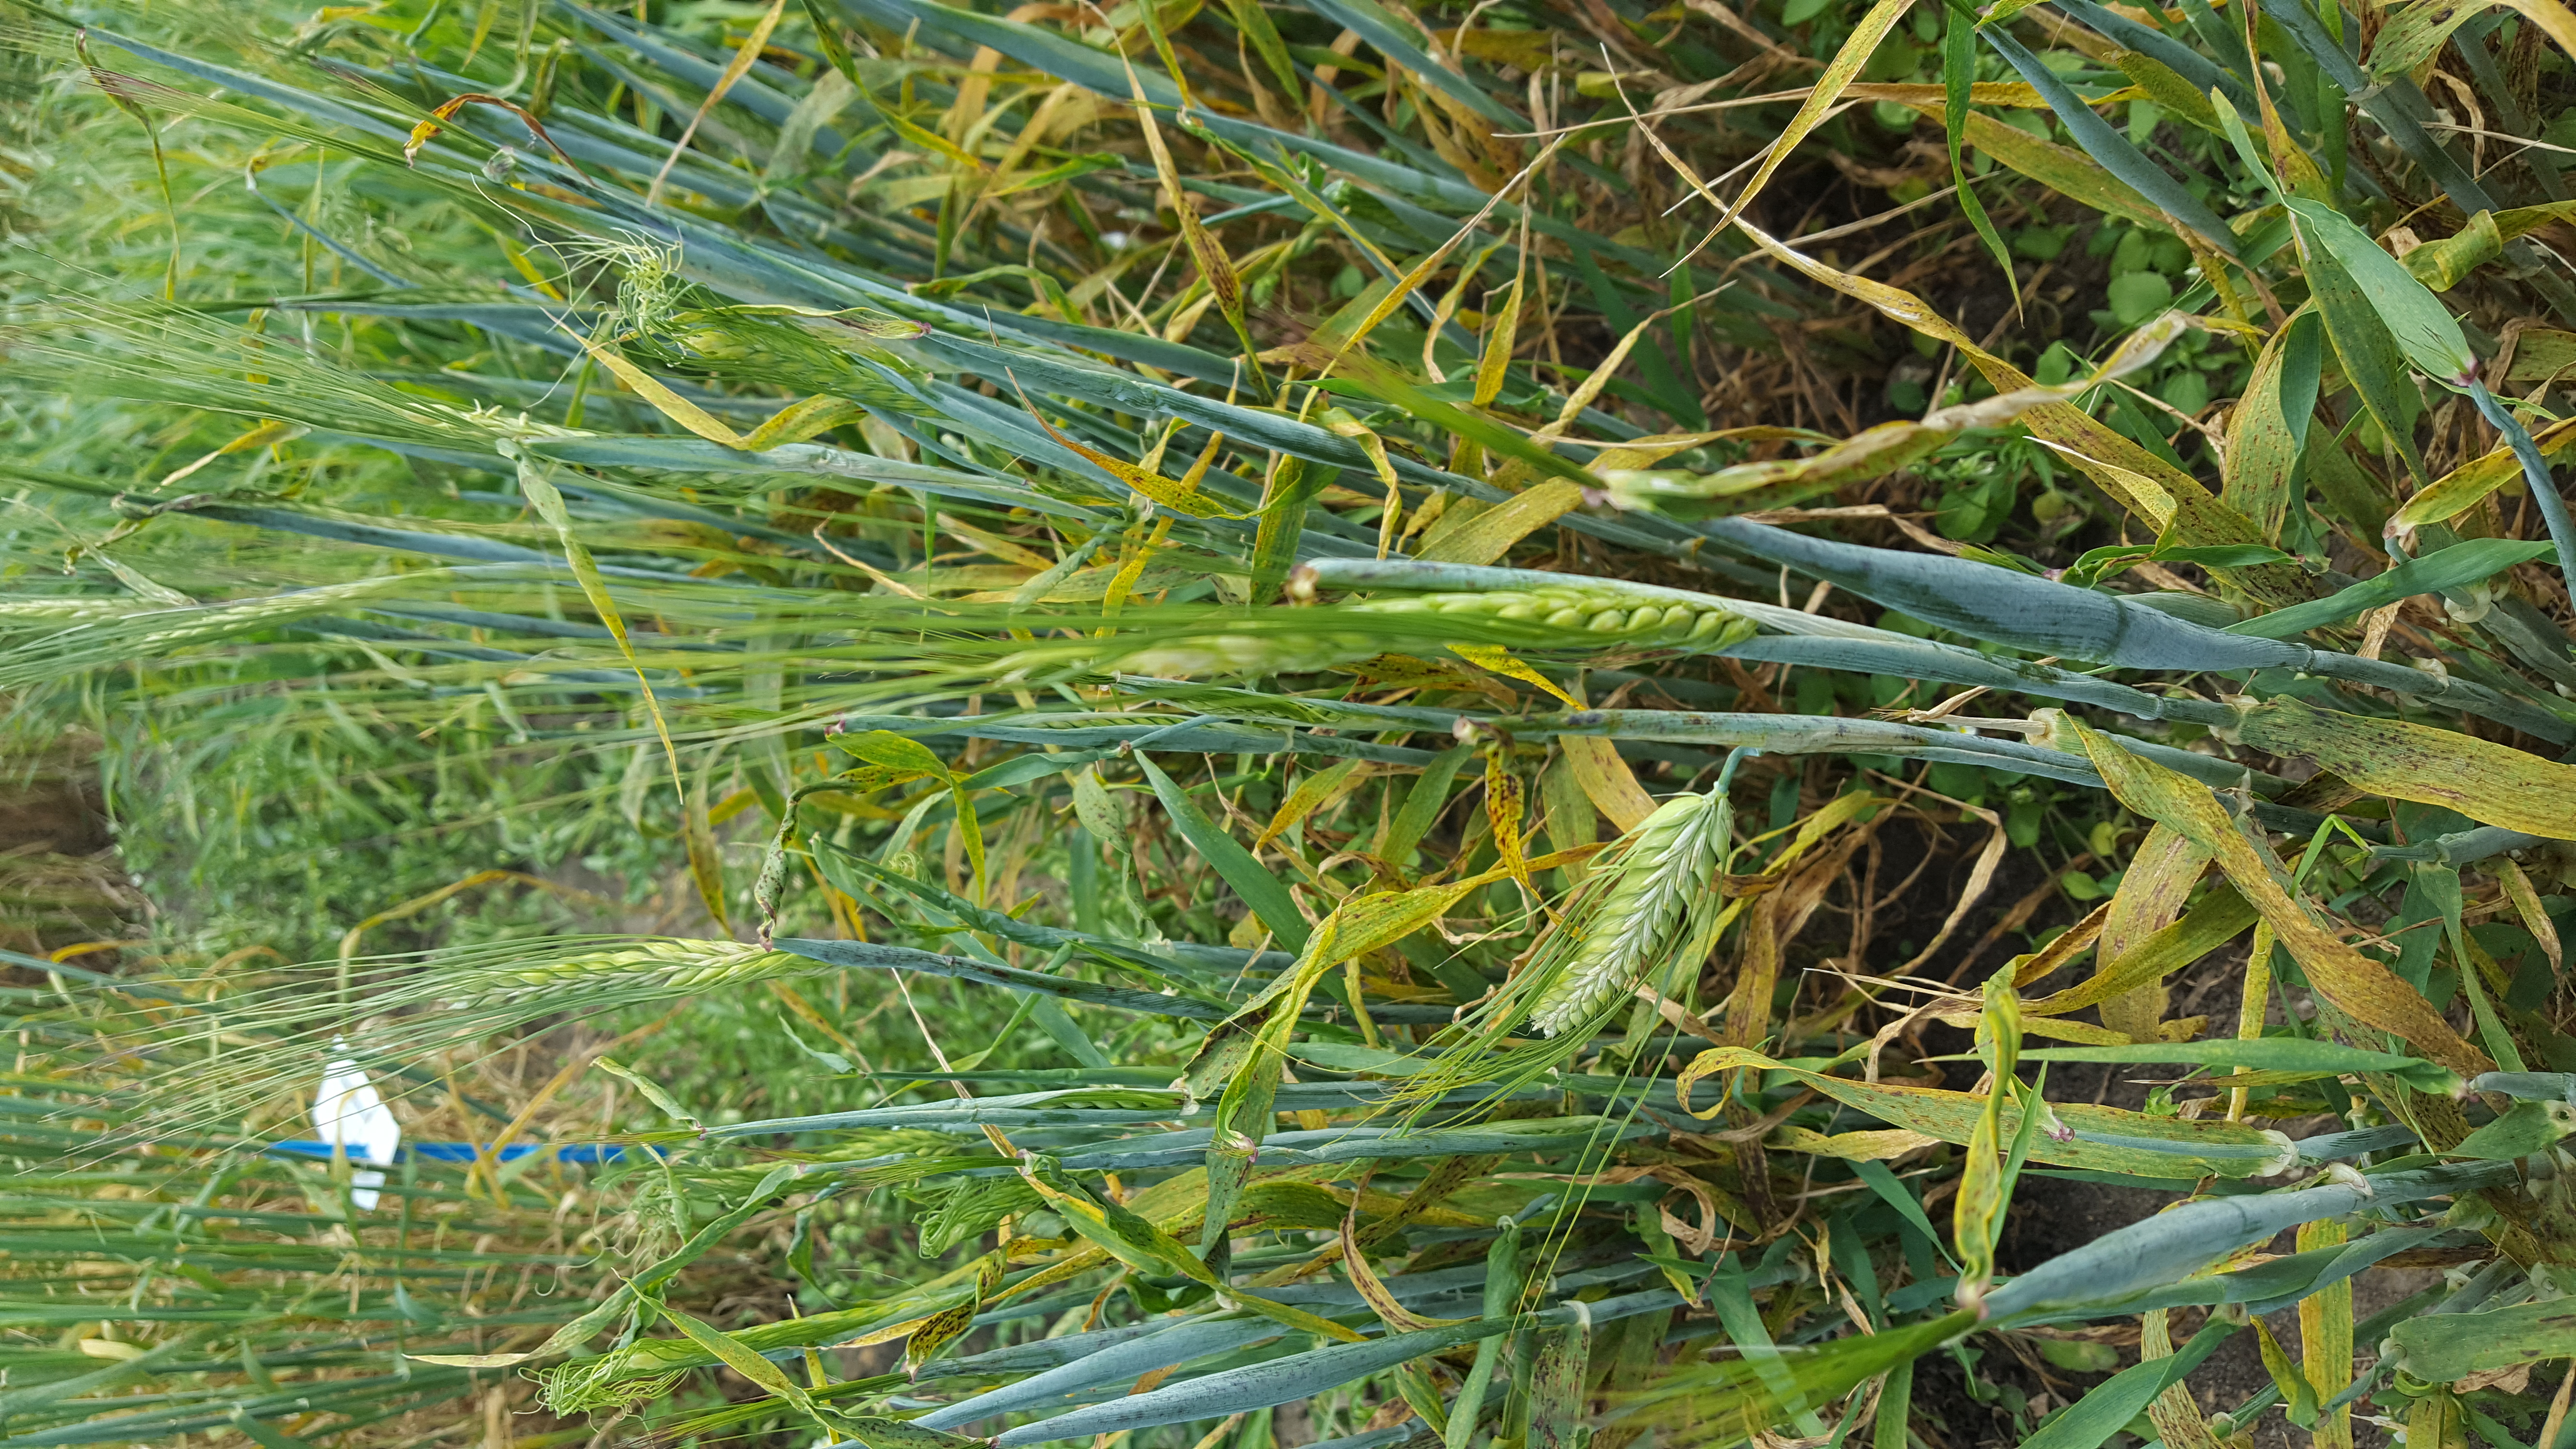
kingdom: Plantae
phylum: Tracheophyta
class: Liliopsida
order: Poales
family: Poaceae
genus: Hordeum
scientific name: Hordeum vulgare
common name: Common barley
